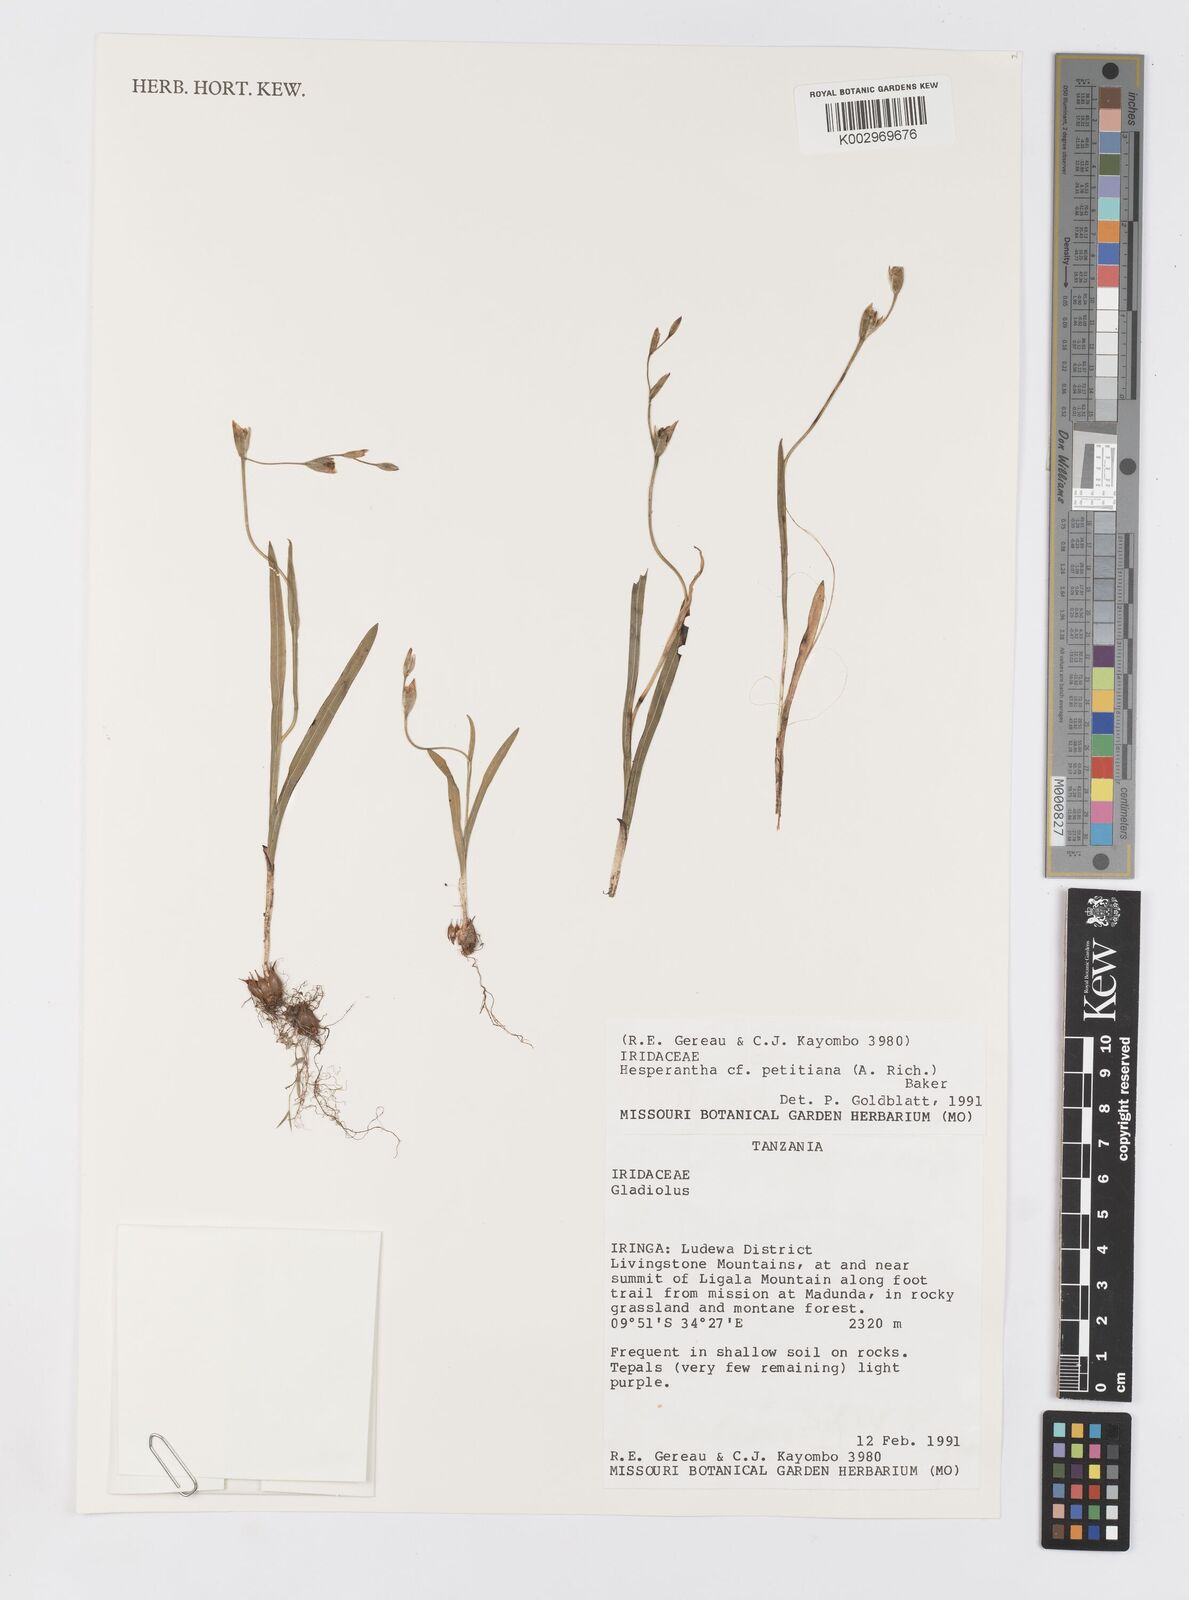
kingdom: Plantae
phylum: Tracheophyta
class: Liliopsida
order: Asparagales
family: Iridaceae
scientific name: Iridaceae
